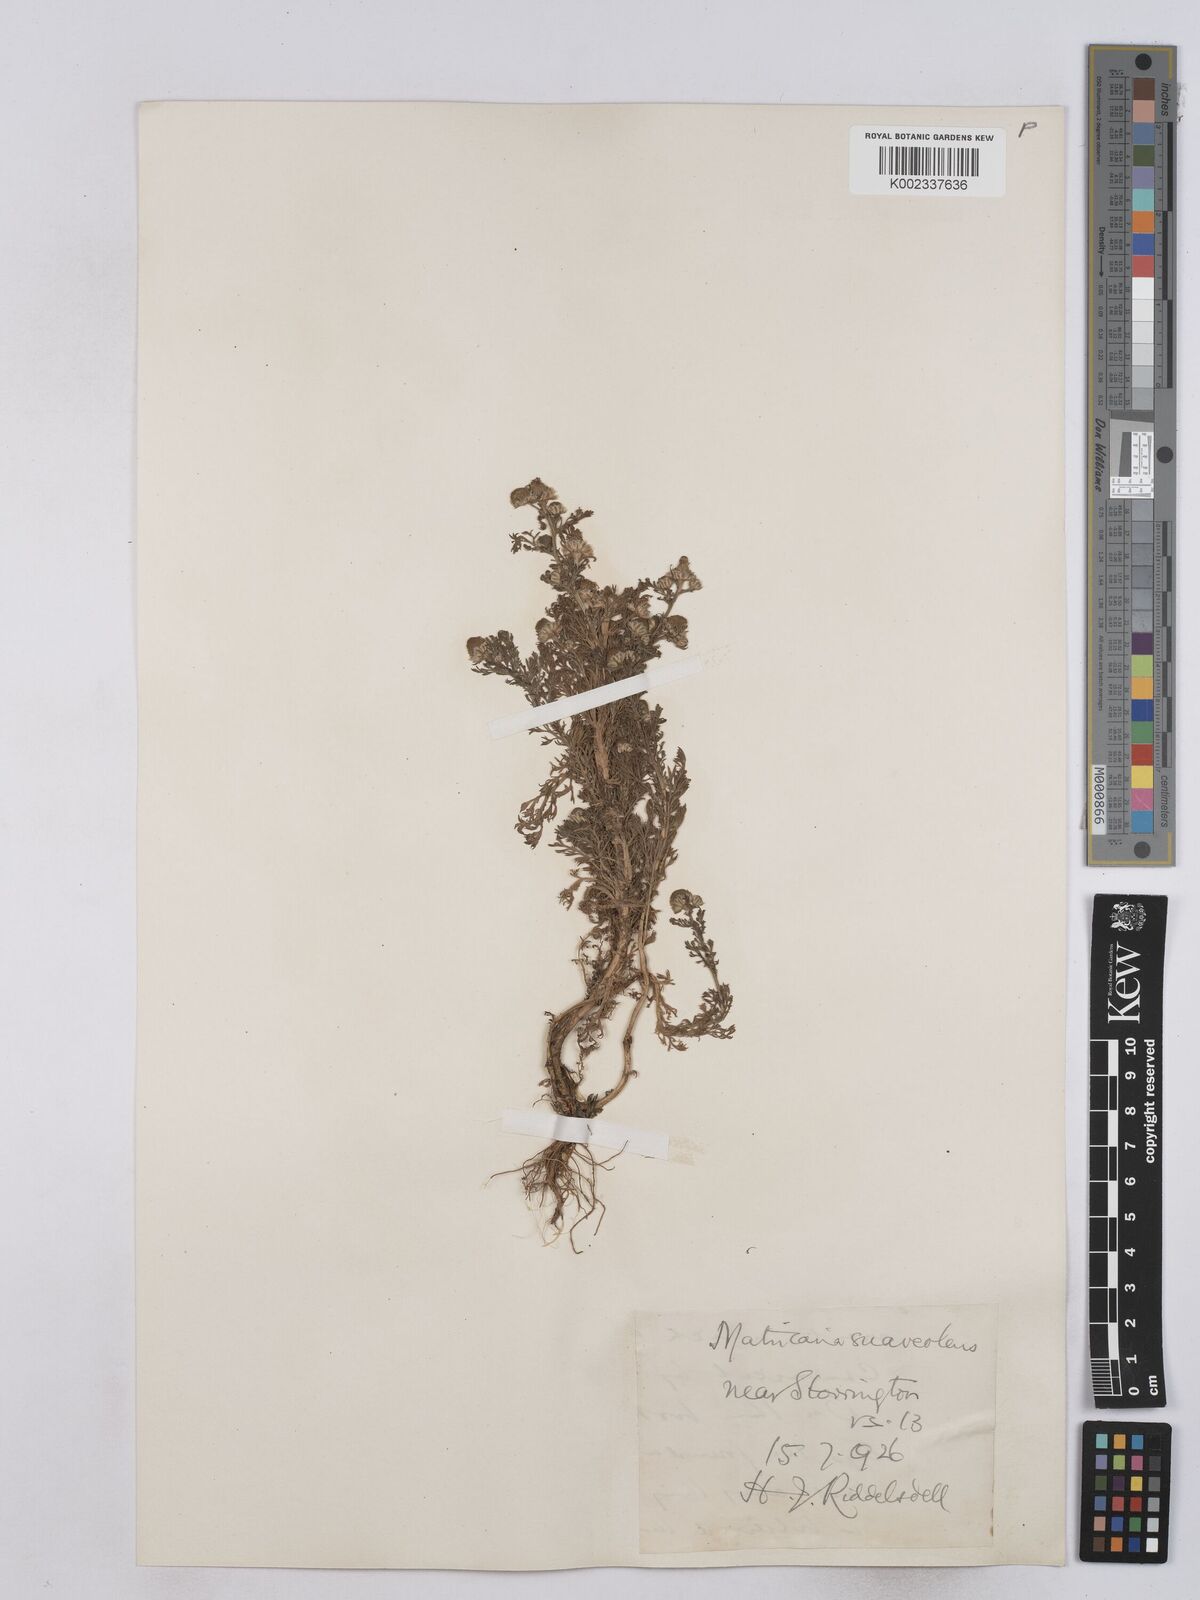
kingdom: Plantae
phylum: Tracheophyta
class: Magnoliopsida
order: Asterales
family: Asteraceae
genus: Matricaria
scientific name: Matricaria discoidea
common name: Disc mayweed
